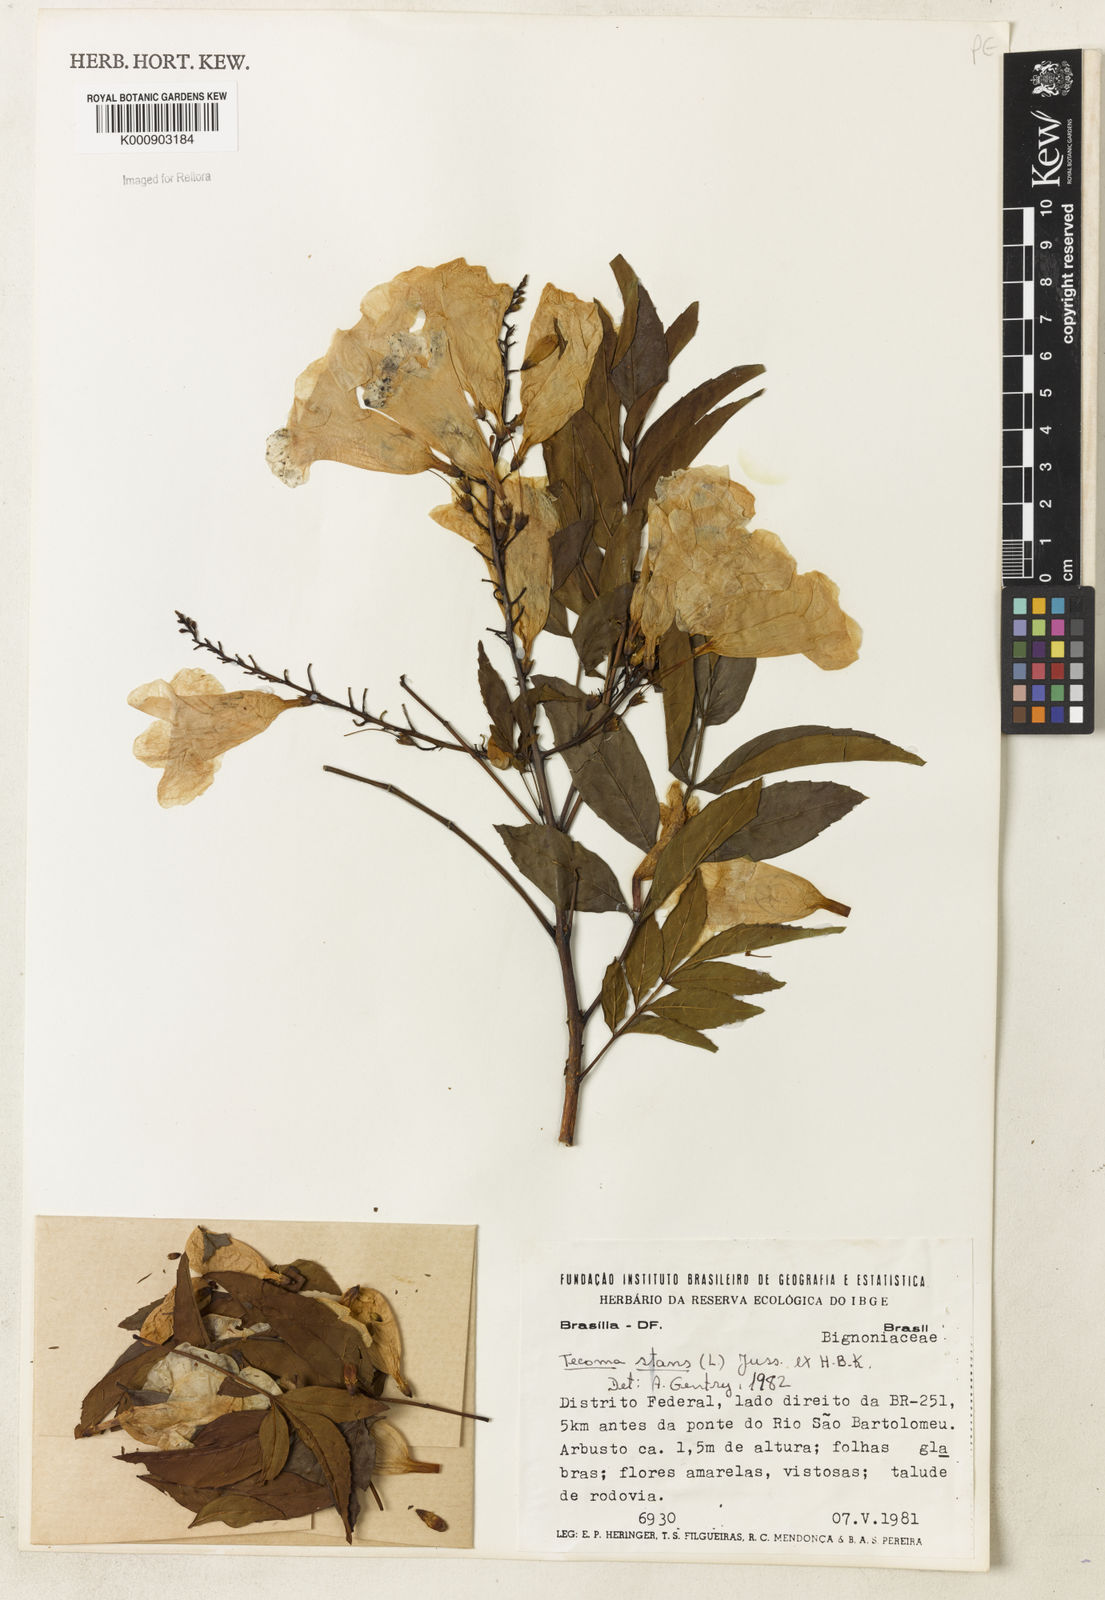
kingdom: Plantae
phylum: Tracheophyta
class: Magnoliopsida
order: Lamiales
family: Bignoniaceae
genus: Tecoma
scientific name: Tecoma stans
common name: Yellow trumpetbush
